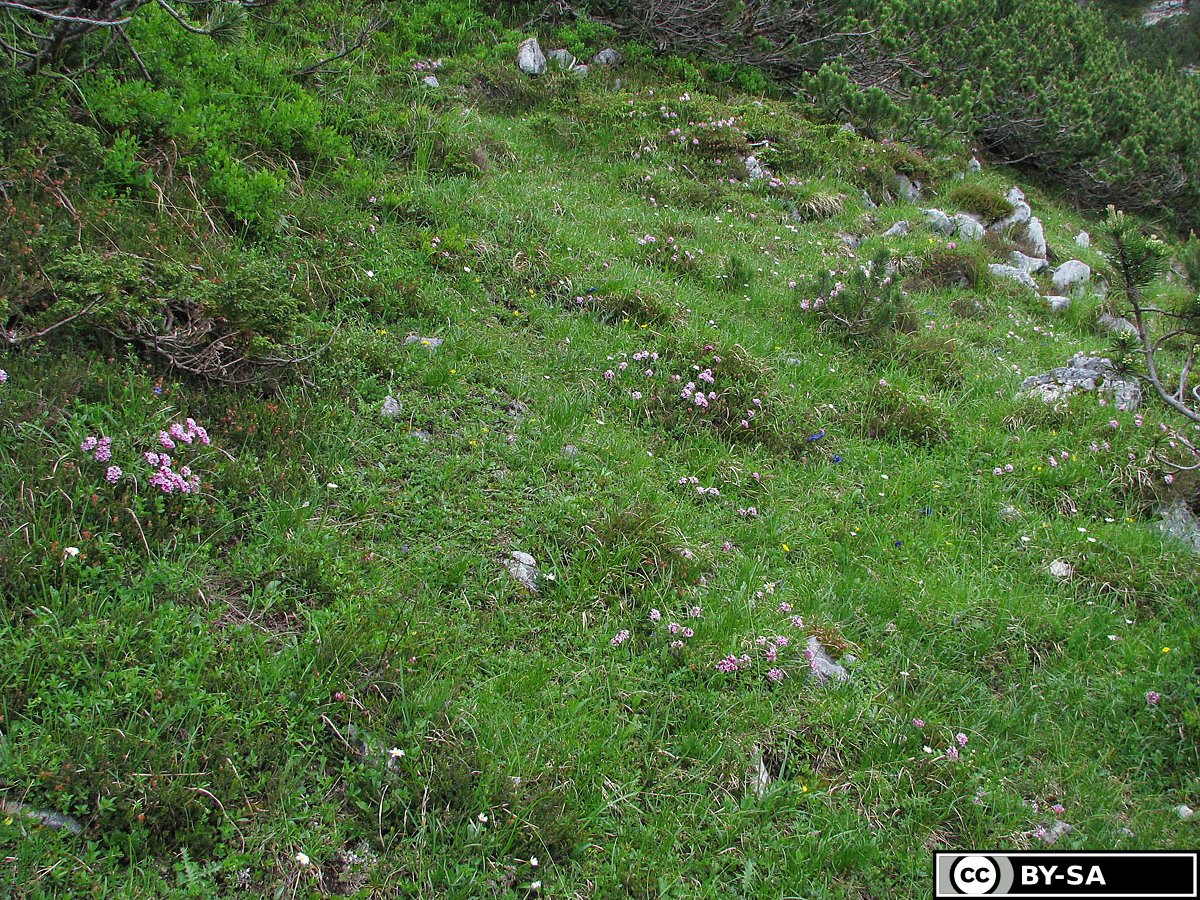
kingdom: Plantae
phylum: Tracheophyta
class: Magnoliopsida
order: Malvales
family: Thymelaeaceae
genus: Daphne
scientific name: Daphne striata
